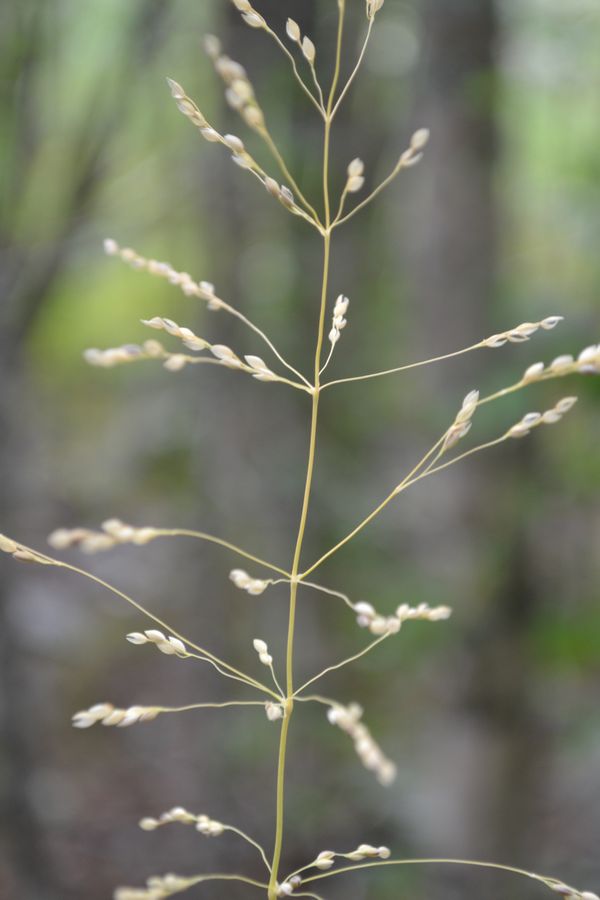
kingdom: Plantae
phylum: Tracheophyta
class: Liliopsida
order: Poales
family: Poaceae
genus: Milium
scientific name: Milium effusum
